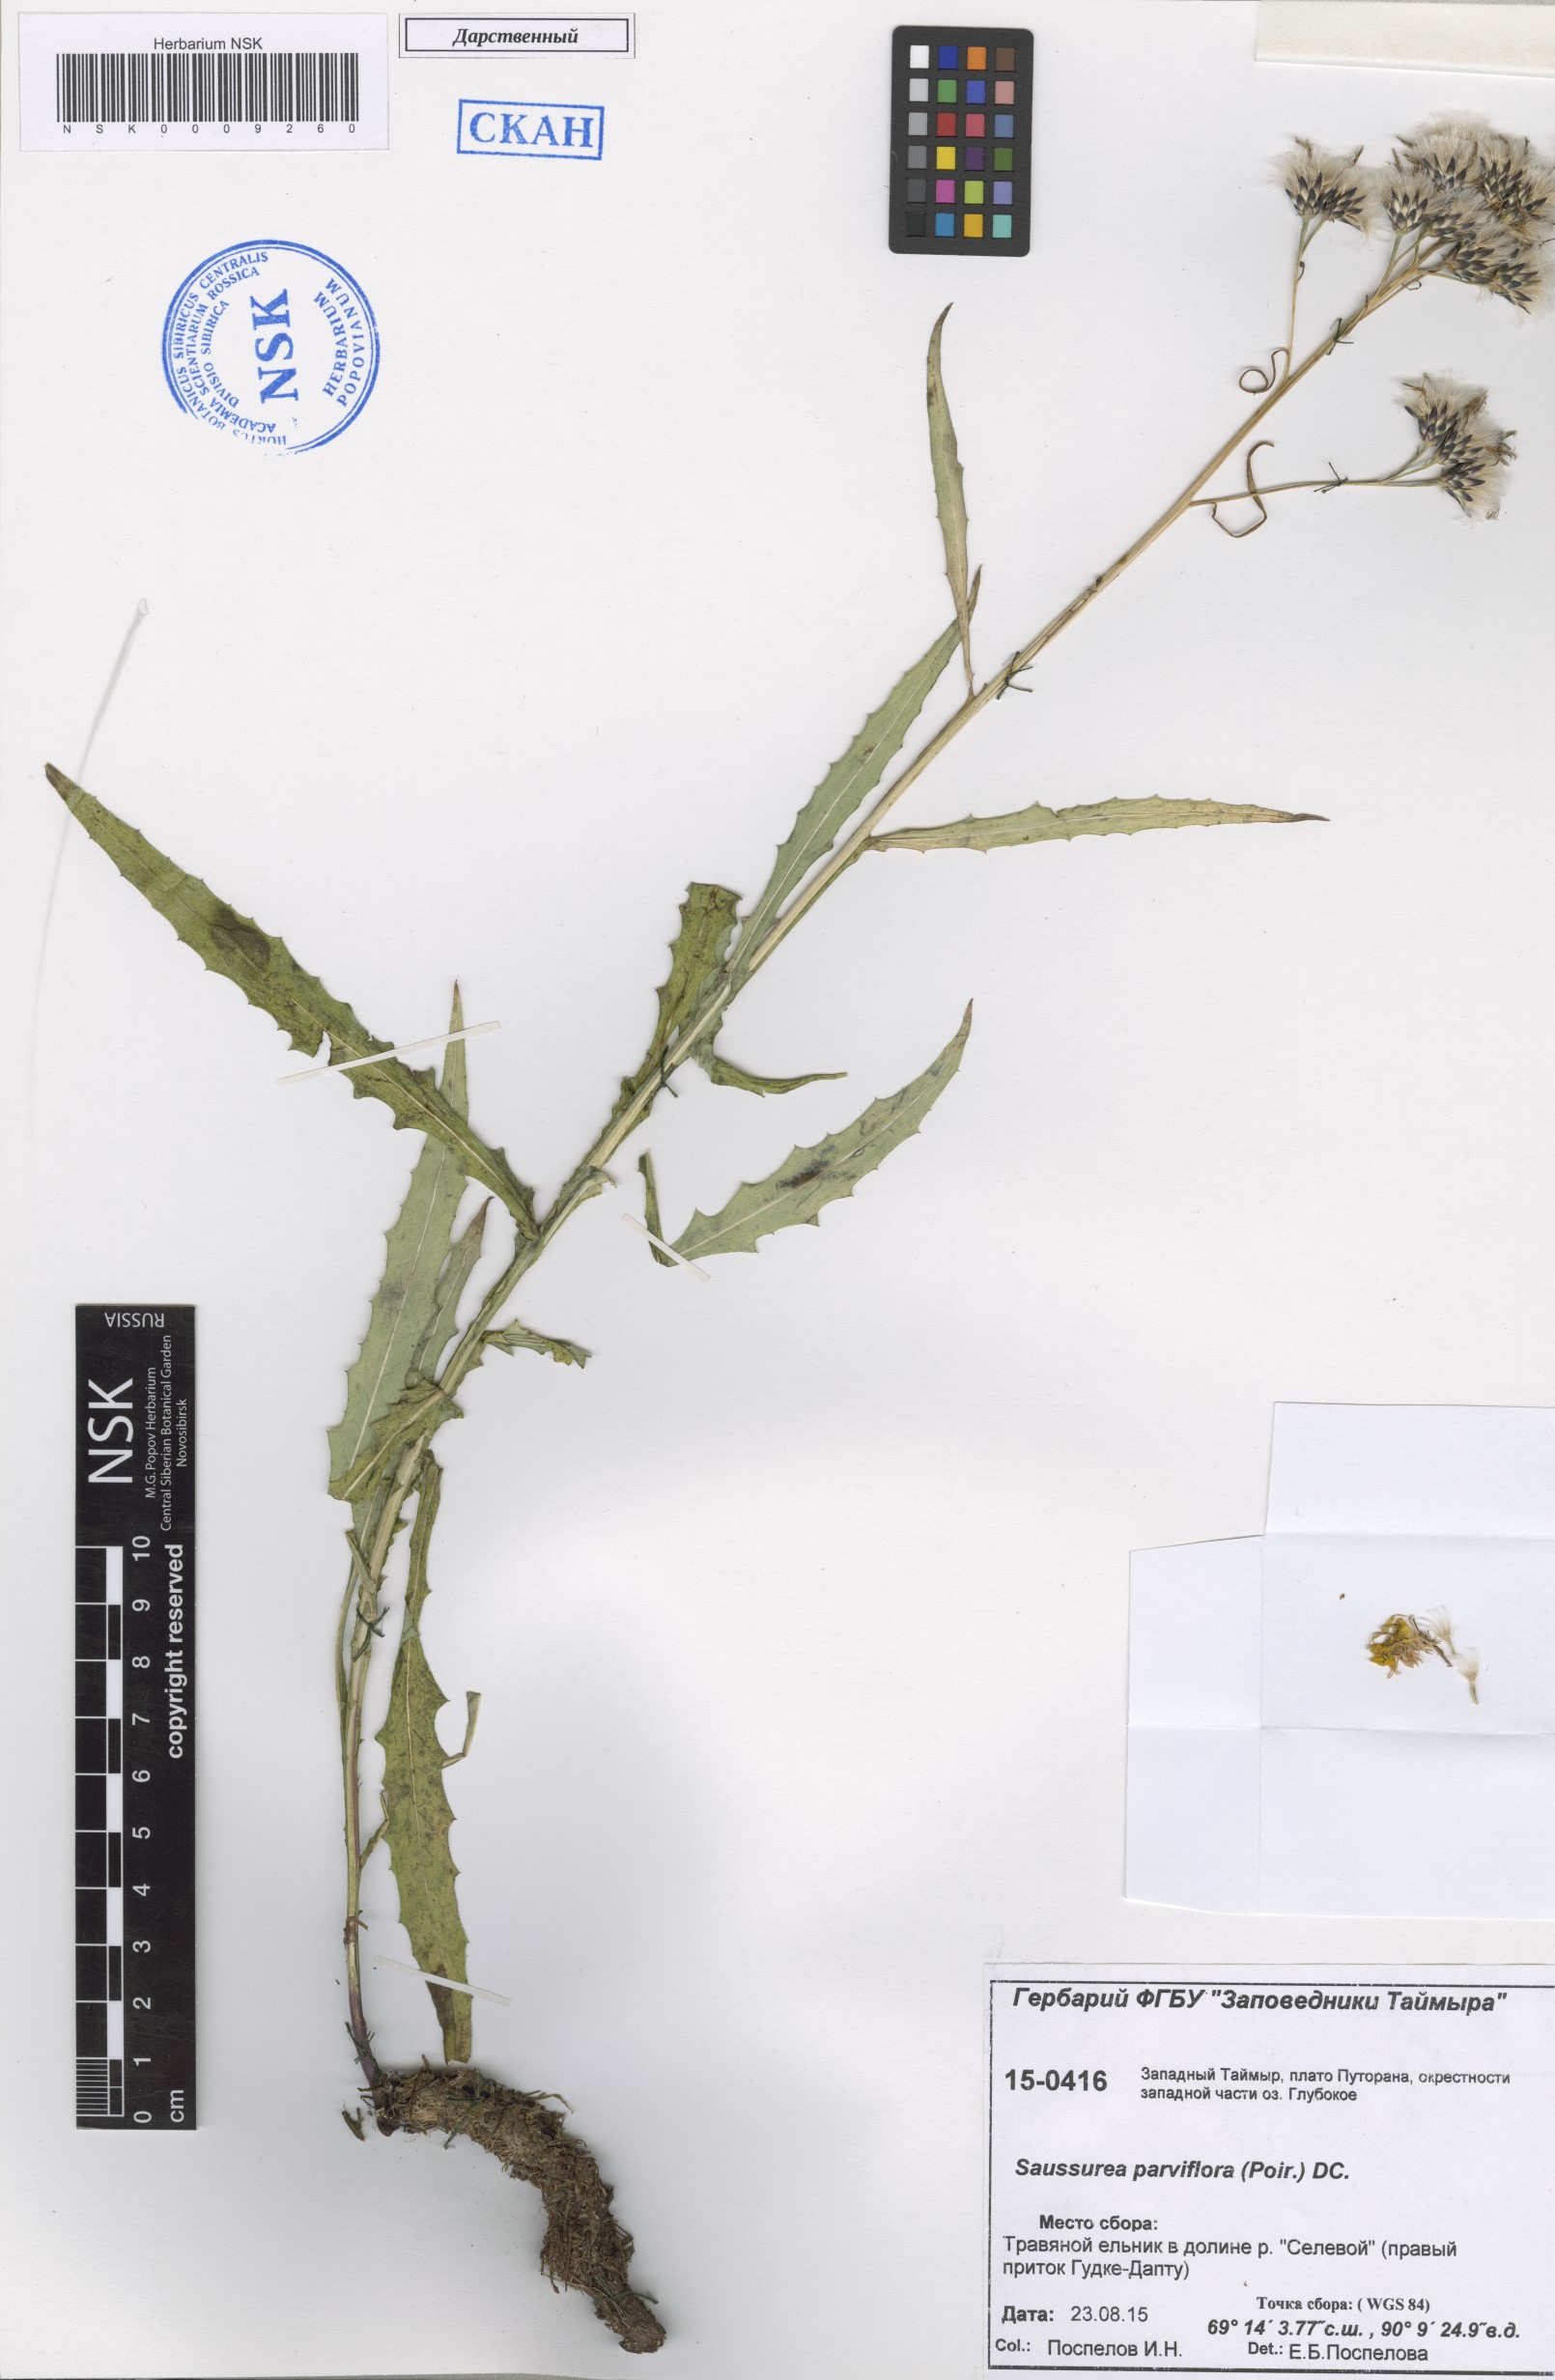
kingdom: Plantae
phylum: Tracheophyta
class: Magnoliopsida
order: Asterales
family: Asteraceae
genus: Saussurea
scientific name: Saussurea parviflora
